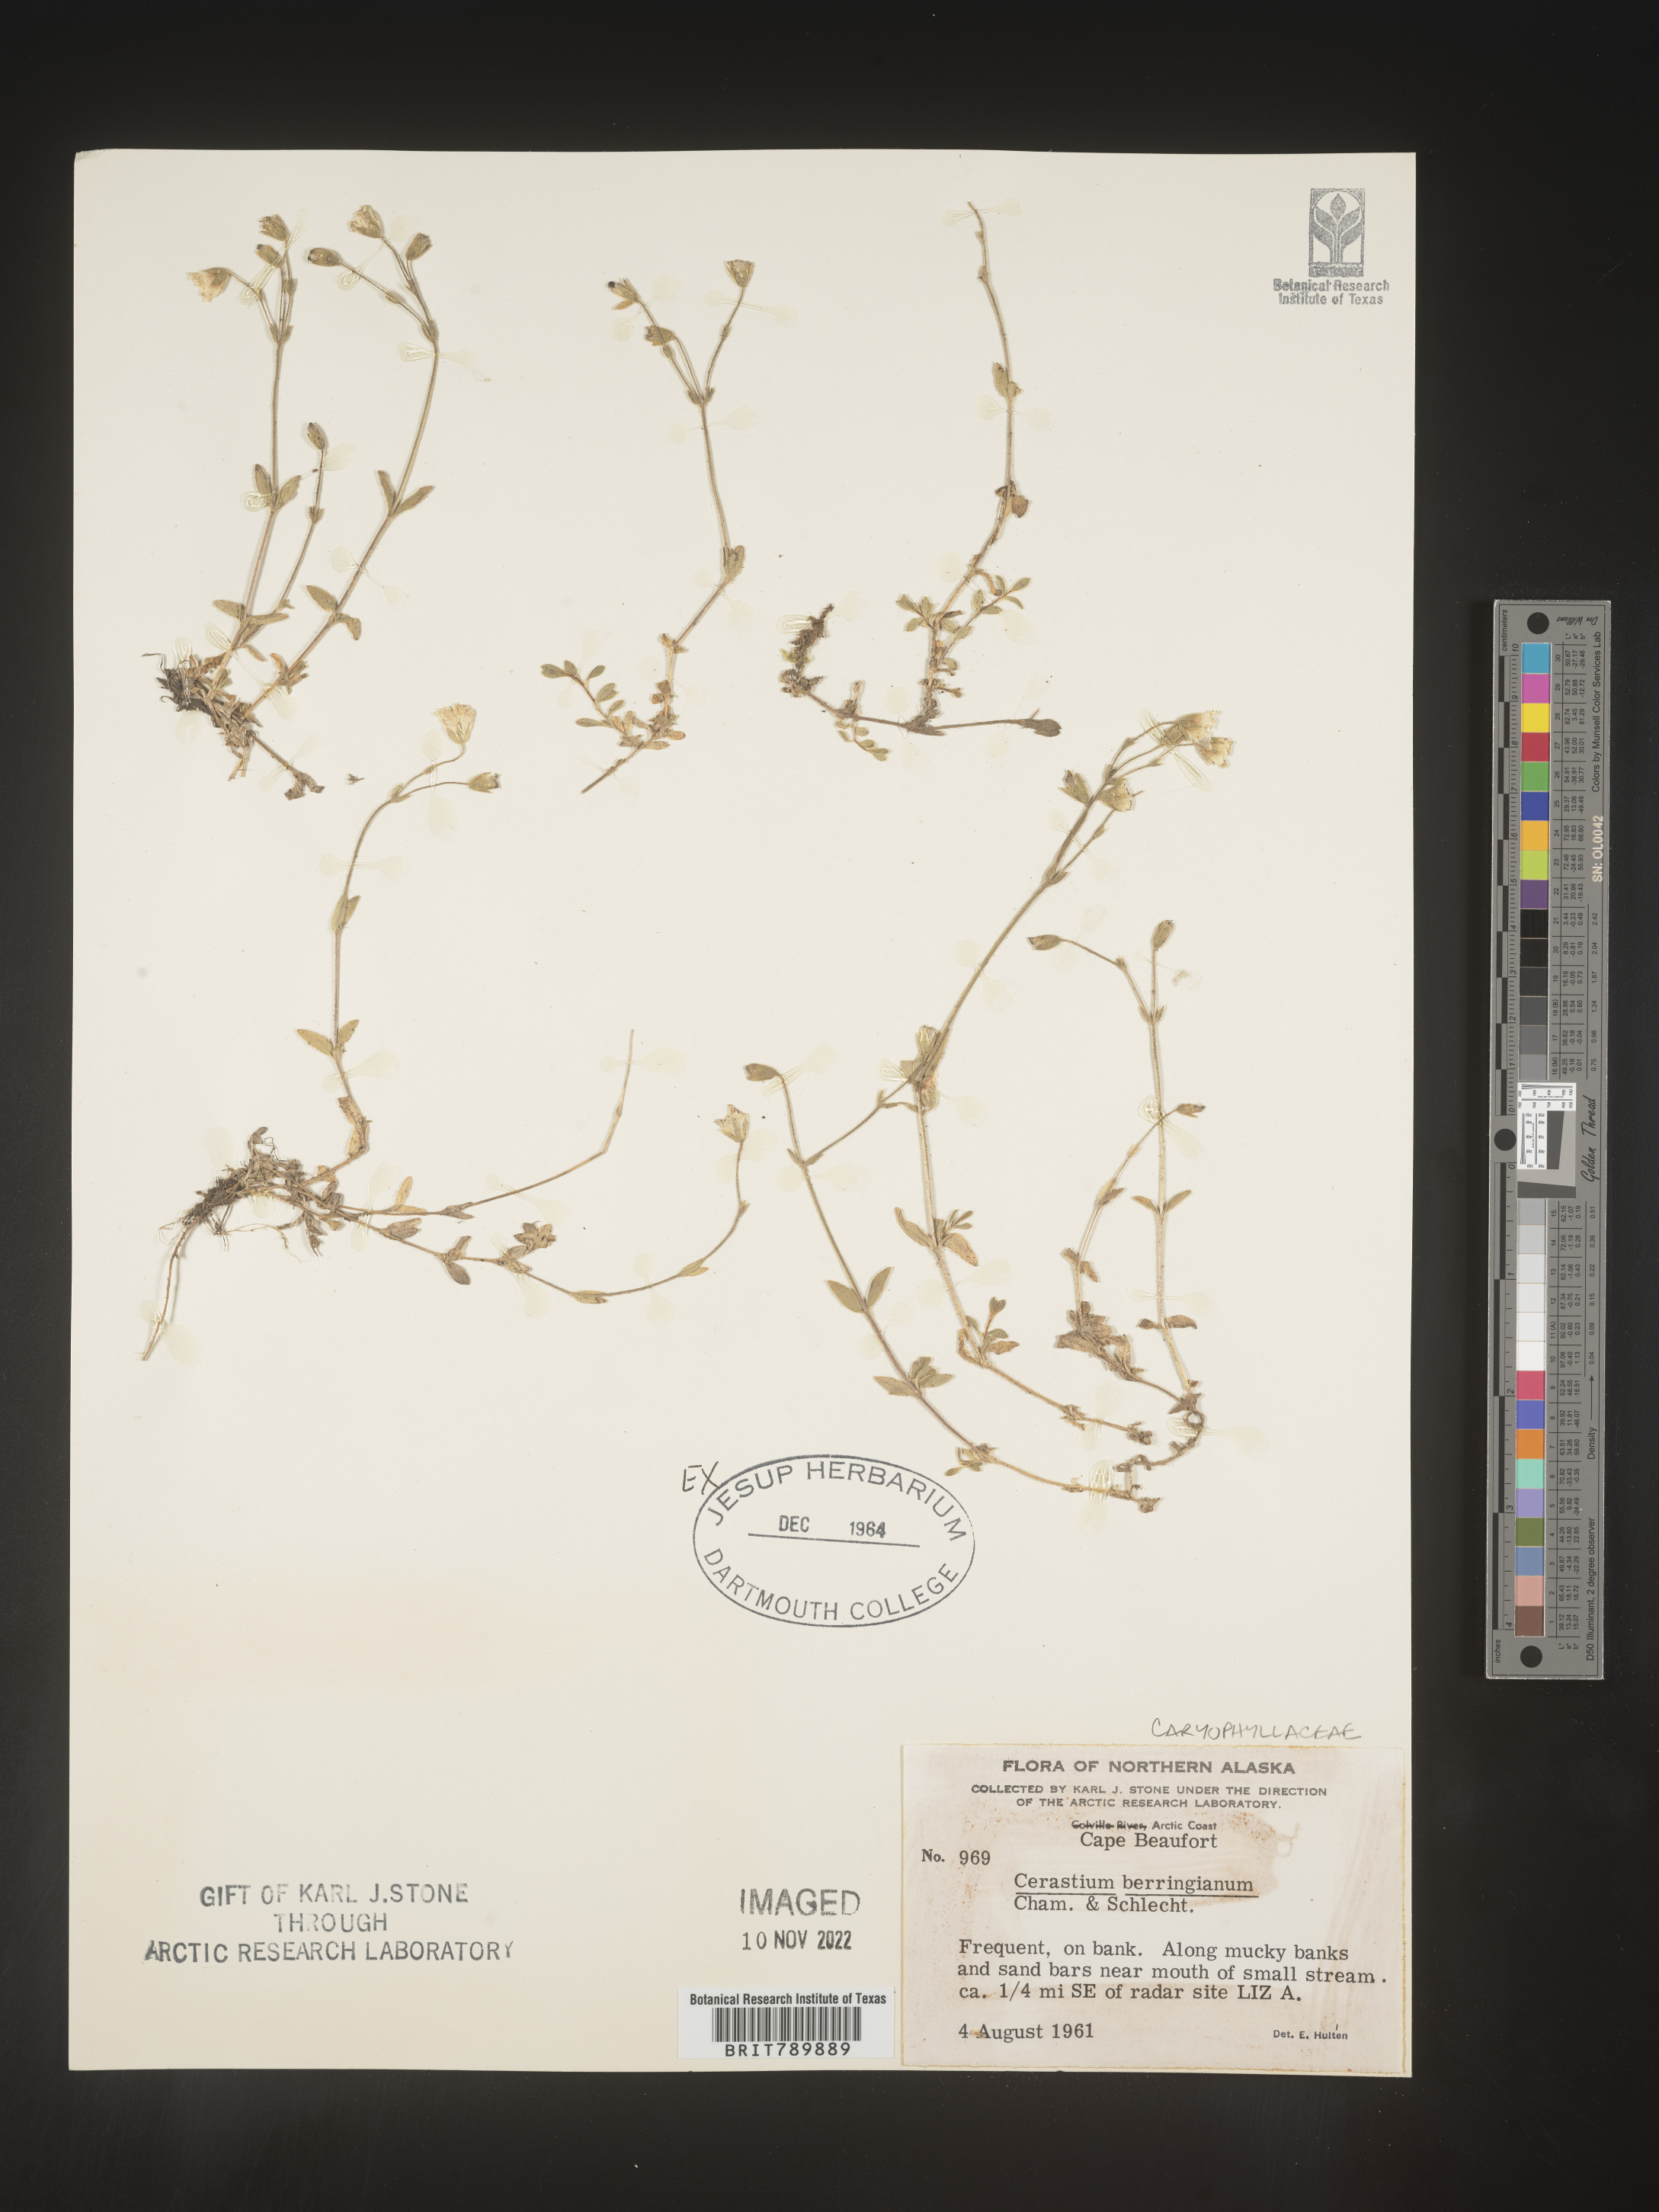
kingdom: Plantae
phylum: Tracheophyta
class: Magnoliopsida
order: Caryophyllales
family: Caryophyllaceae
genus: Cerastium
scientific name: Cerastium beeringianum
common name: Bering mouse-ear chickweed
